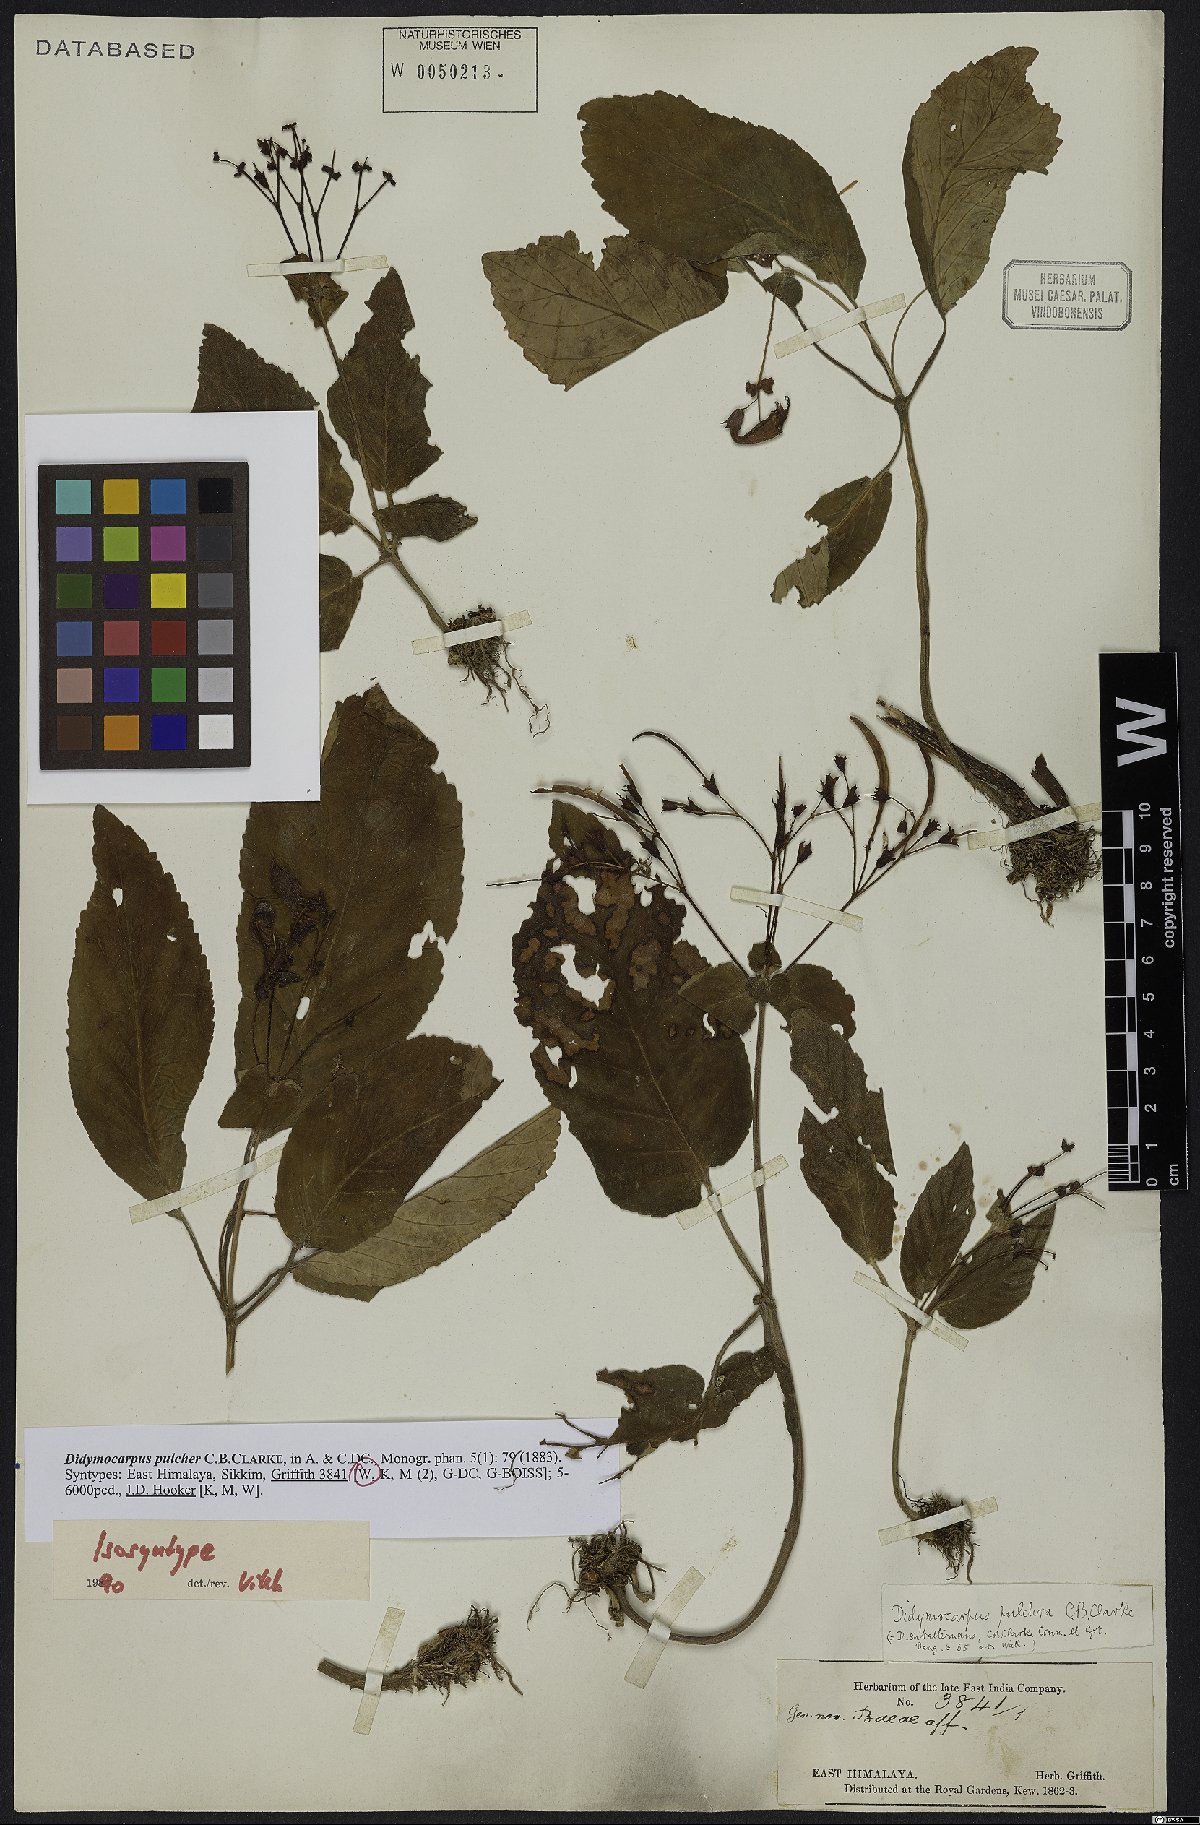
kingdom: Plantae
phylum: Tracheophyta
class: Magnoliopsida
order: Lamiales
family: Gesneriaceae
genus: Didymocarpus
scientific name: Didymocarpus punduanus
